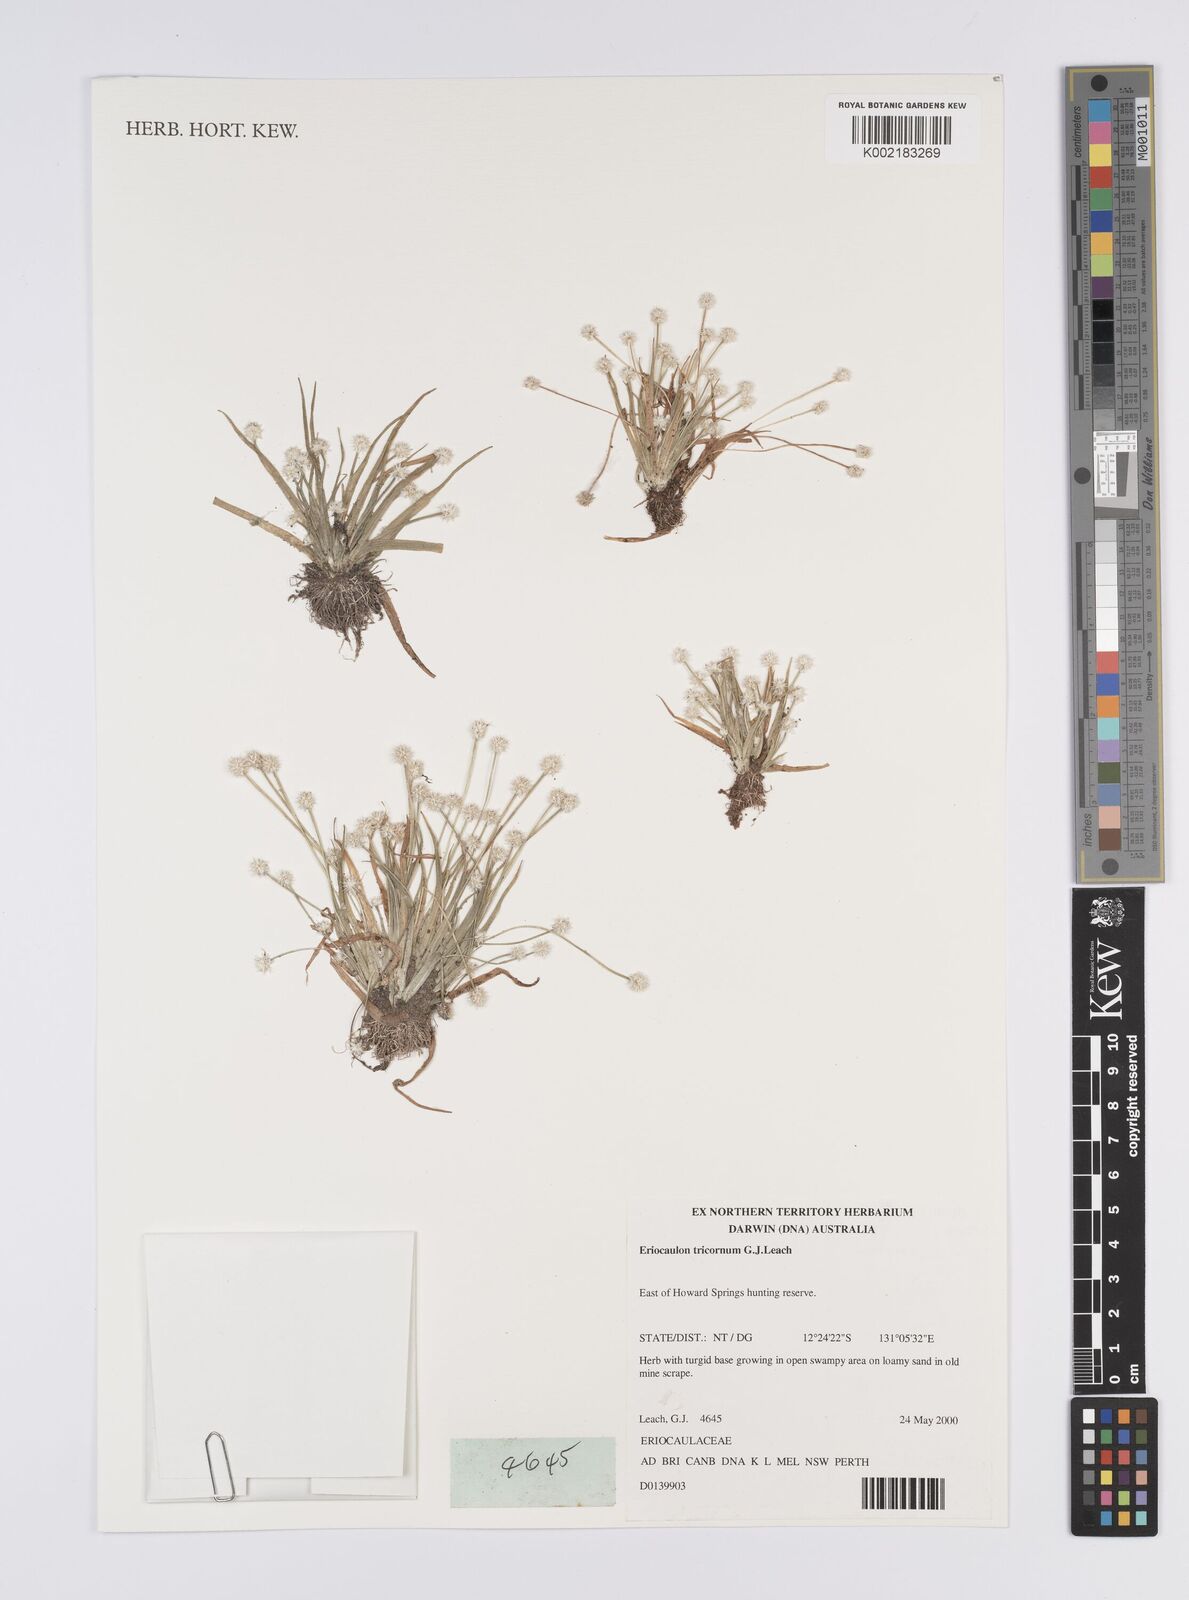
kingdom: Plantae
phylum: Tracheophyta
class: Liliopsida
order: Poales
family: Eriocaulaceae
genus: Eriocaulon
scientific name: Eriocaulon tricornum
